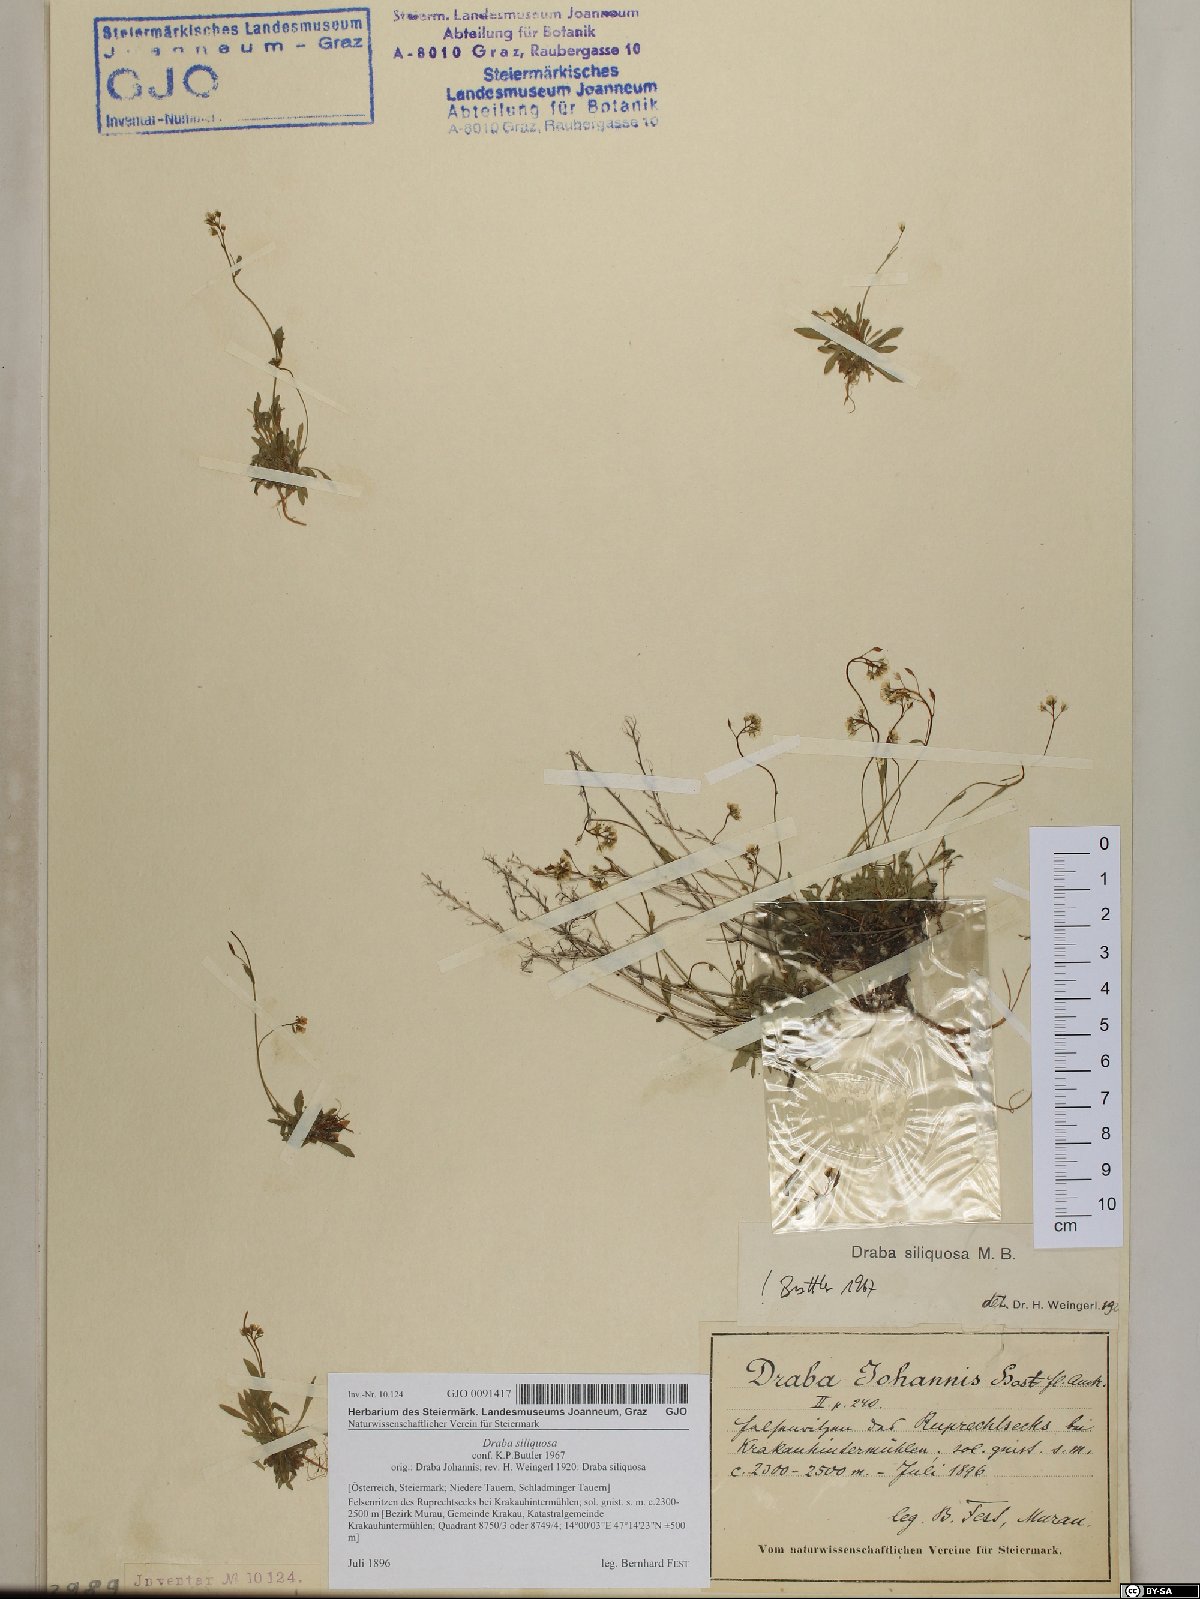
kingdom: Plantae
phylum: Tracheophyta
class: Magnoliopsida
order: Brassicales
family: Brassicaceae
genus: Draba
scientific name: Draba siliquosa
